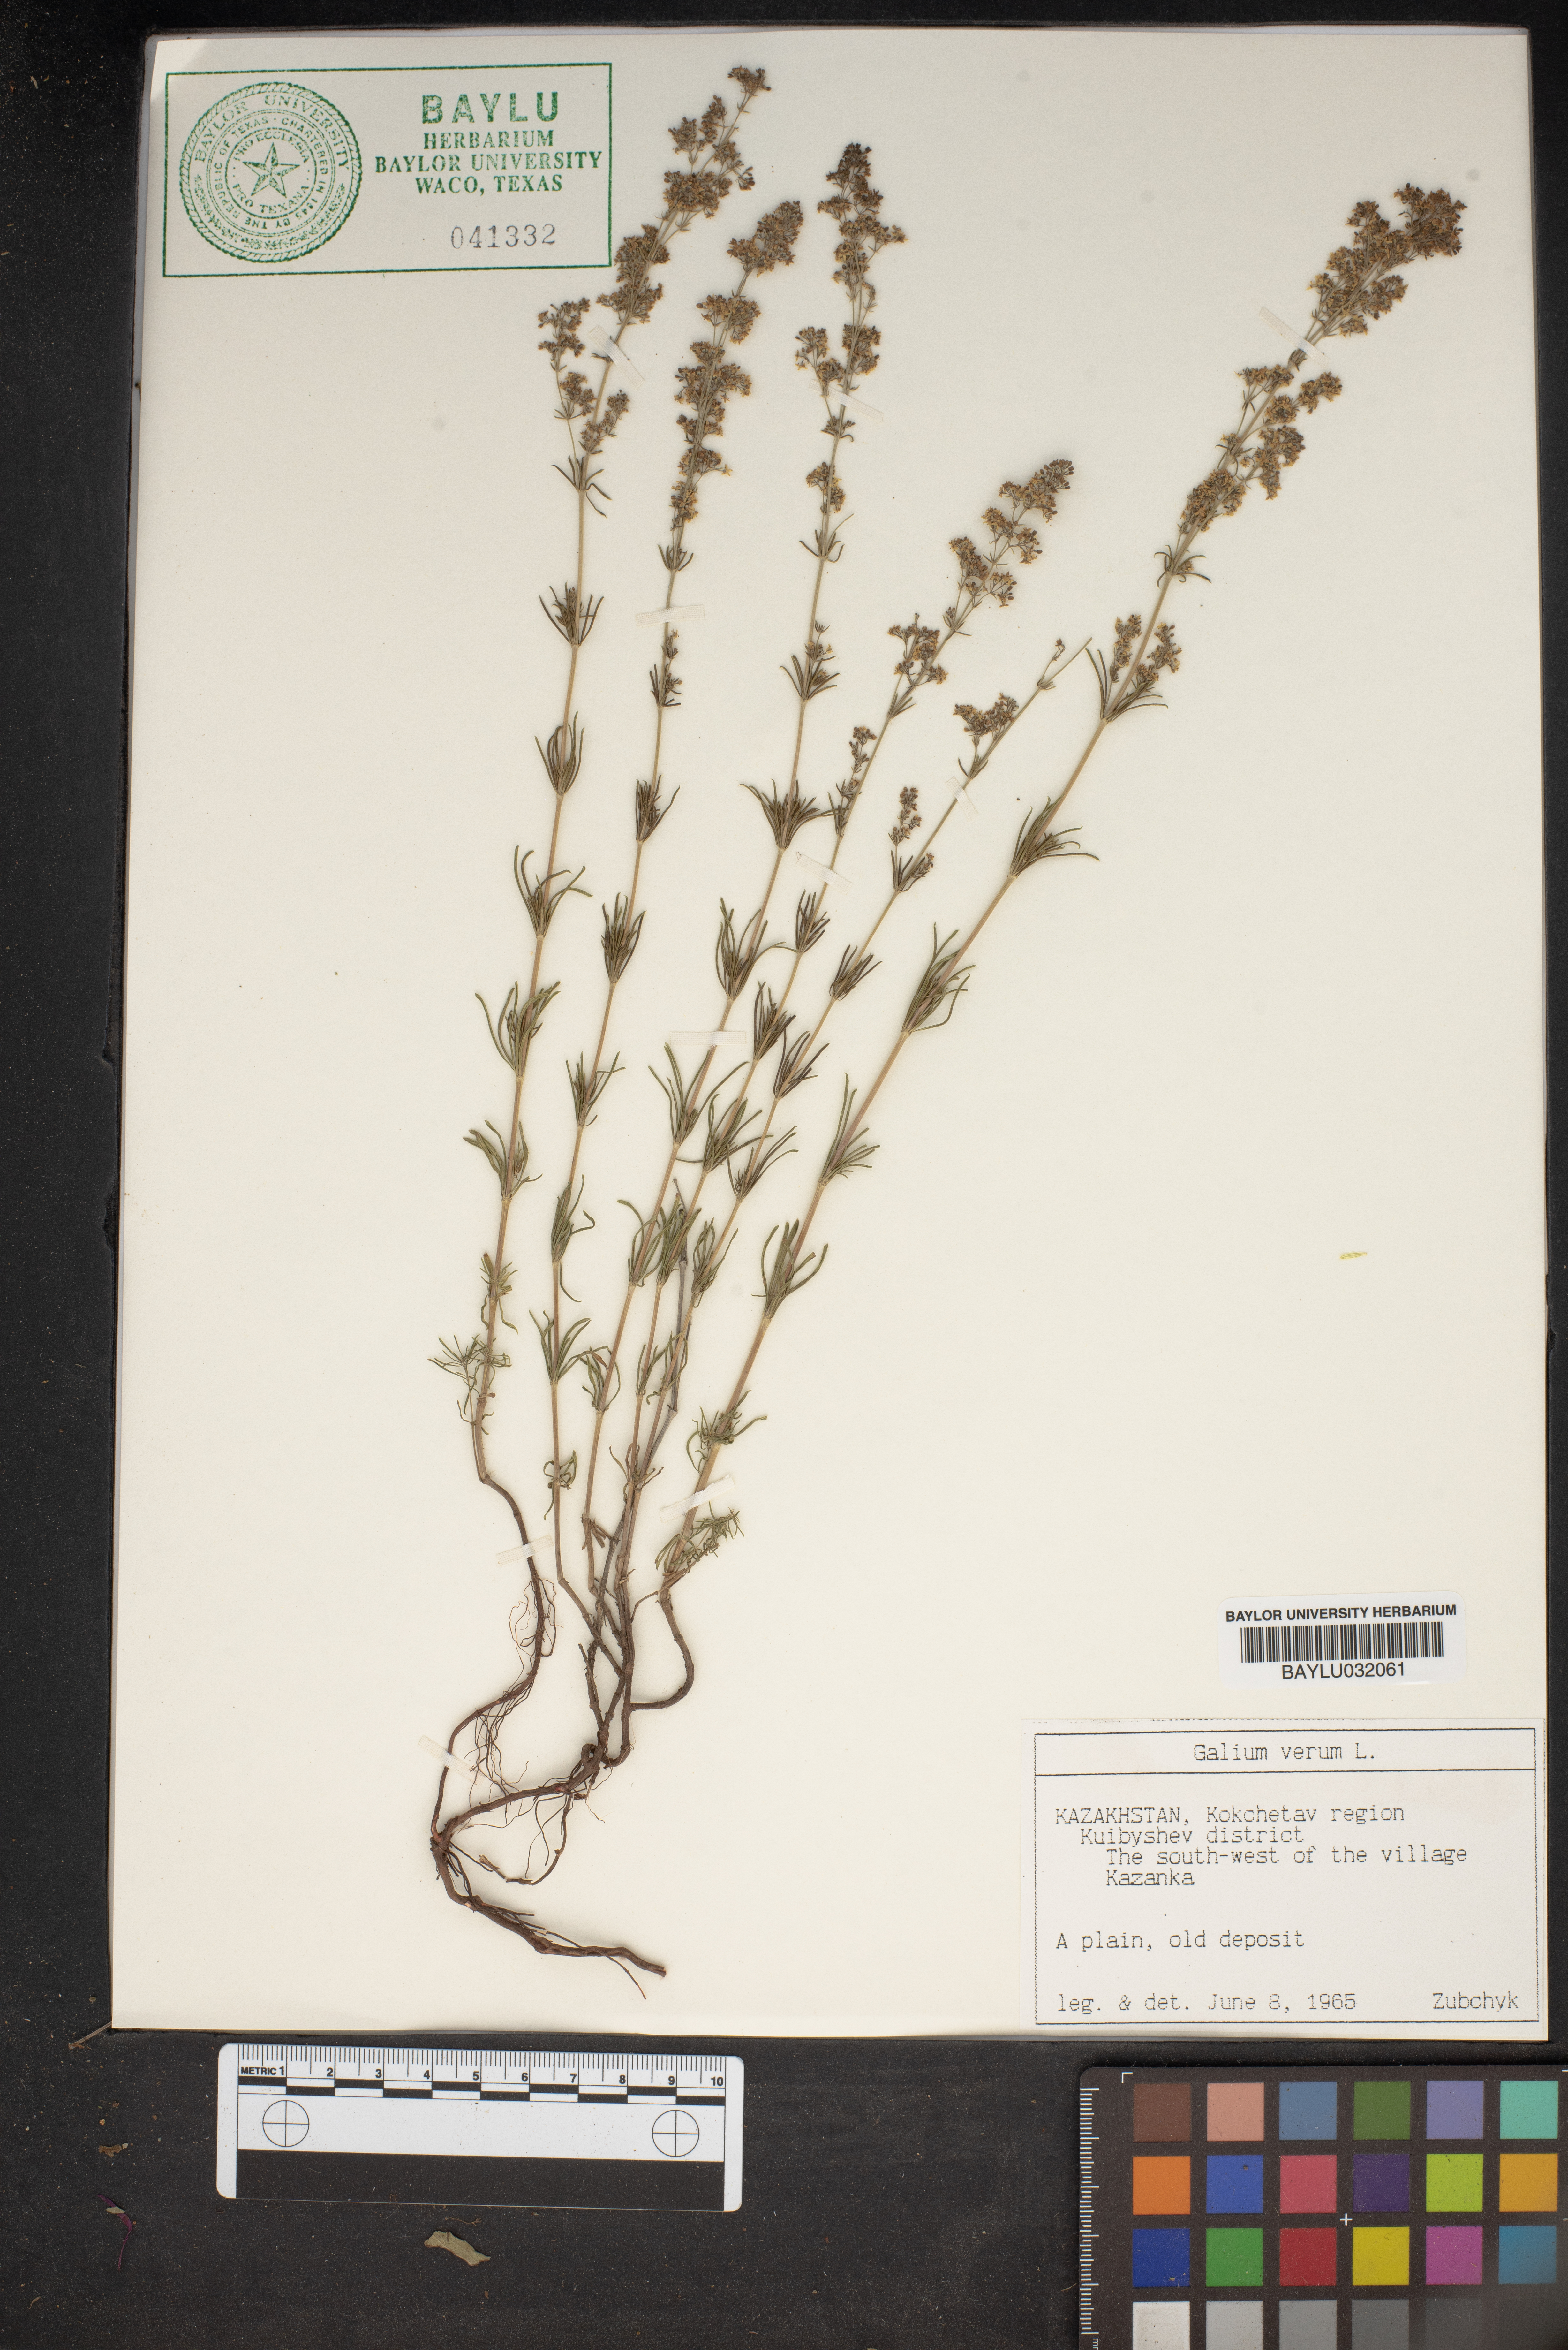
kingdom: Plantae
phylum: Tracheophyta
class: Magnoliopsida
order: Gentianales
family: Rubiaceae
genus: Galium
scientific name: Galium verum
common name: Lady's bedstraw
